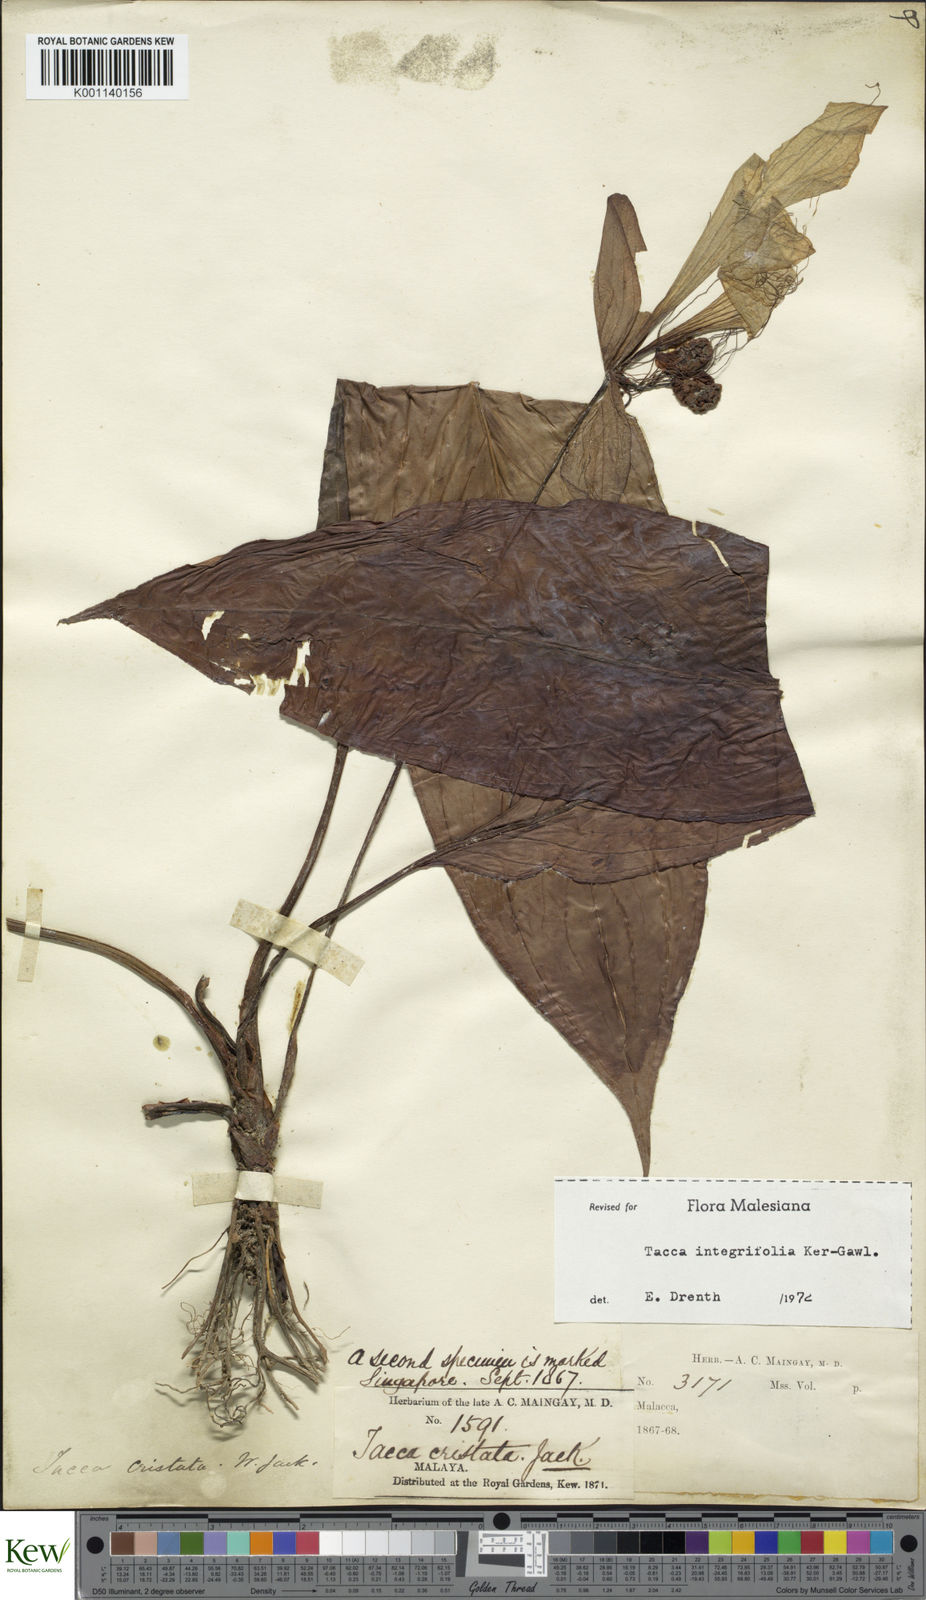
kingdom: Plantae
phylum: Tracheophyta
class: Liliopsida
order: Dioscoreales
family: Dioscoreaceae
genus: Tacca
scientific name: Tacca integrifolia
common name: Batplant
